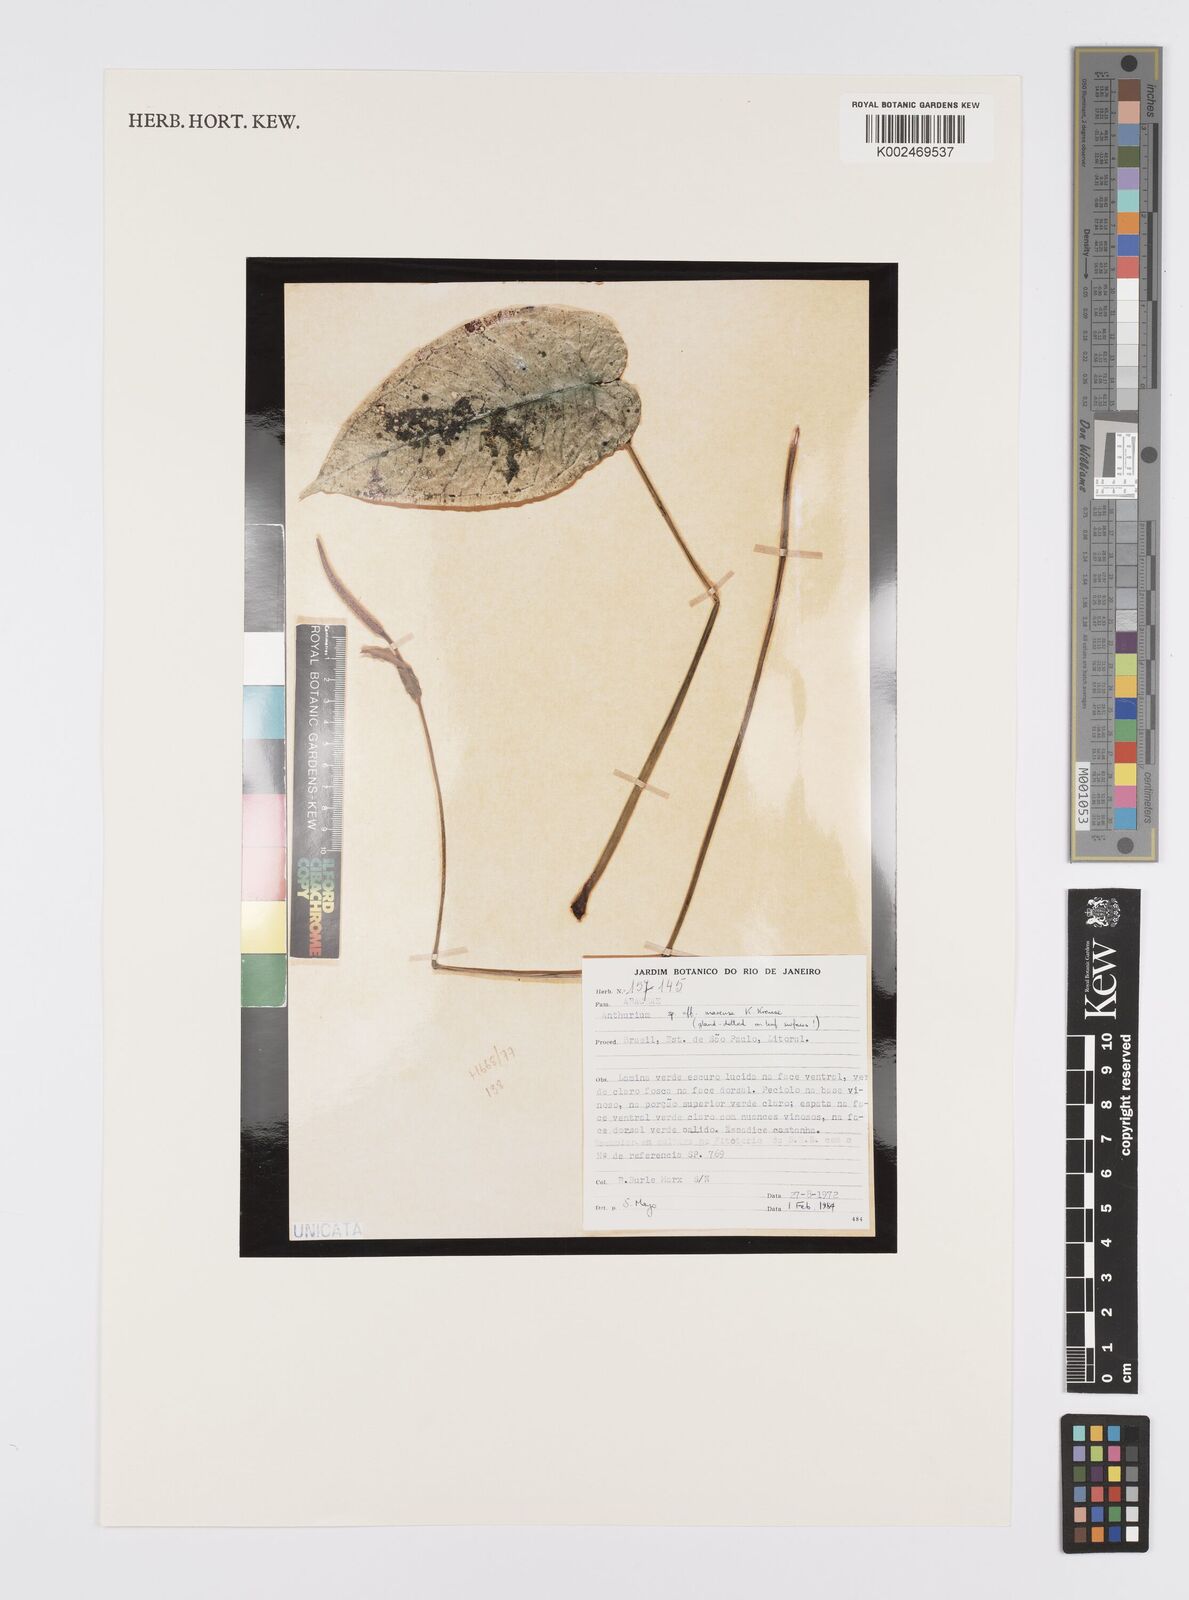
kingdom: Plantae
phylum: Tracheophyta
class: Liliopsida
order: Alismatales
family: Araceae
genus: Anthurium
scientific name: Anthurium marense
